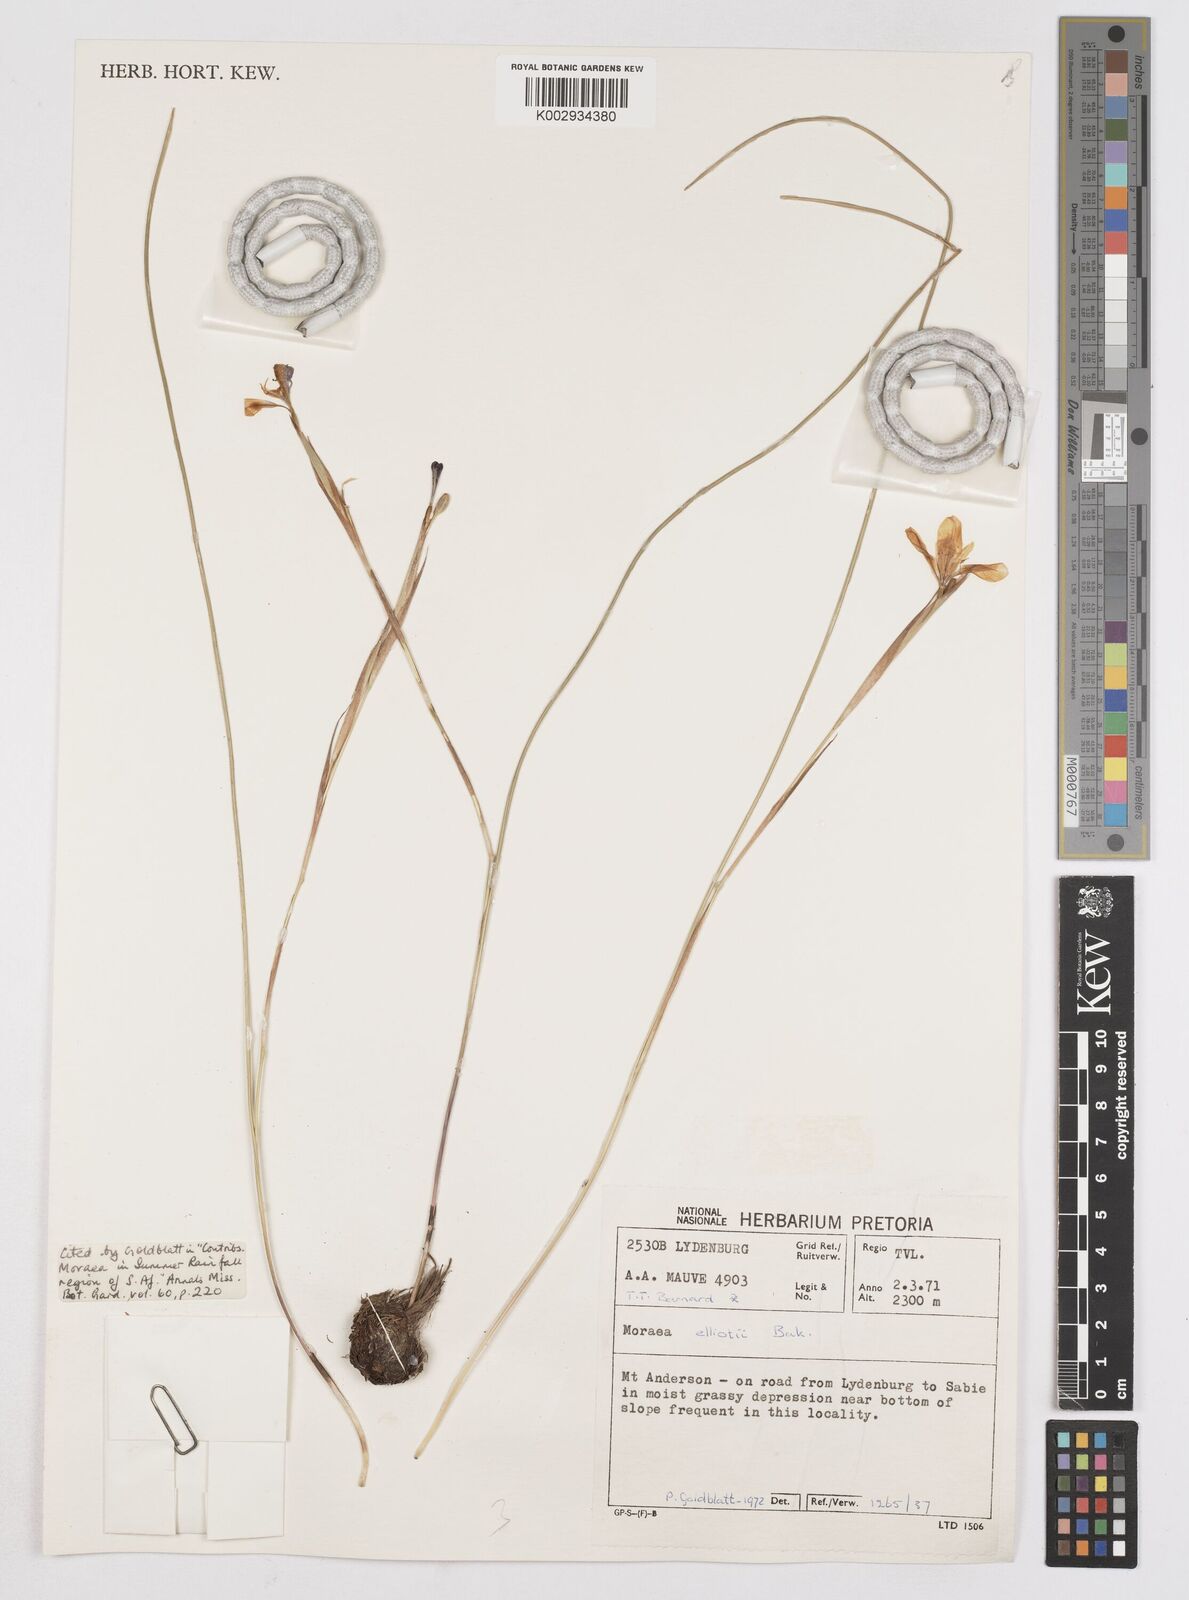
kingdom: Plantae
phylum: Tracheophyta
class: Liliopsida
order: Asparagales
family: Iridaceae
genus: Moraea
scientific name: Moraea elliotii
